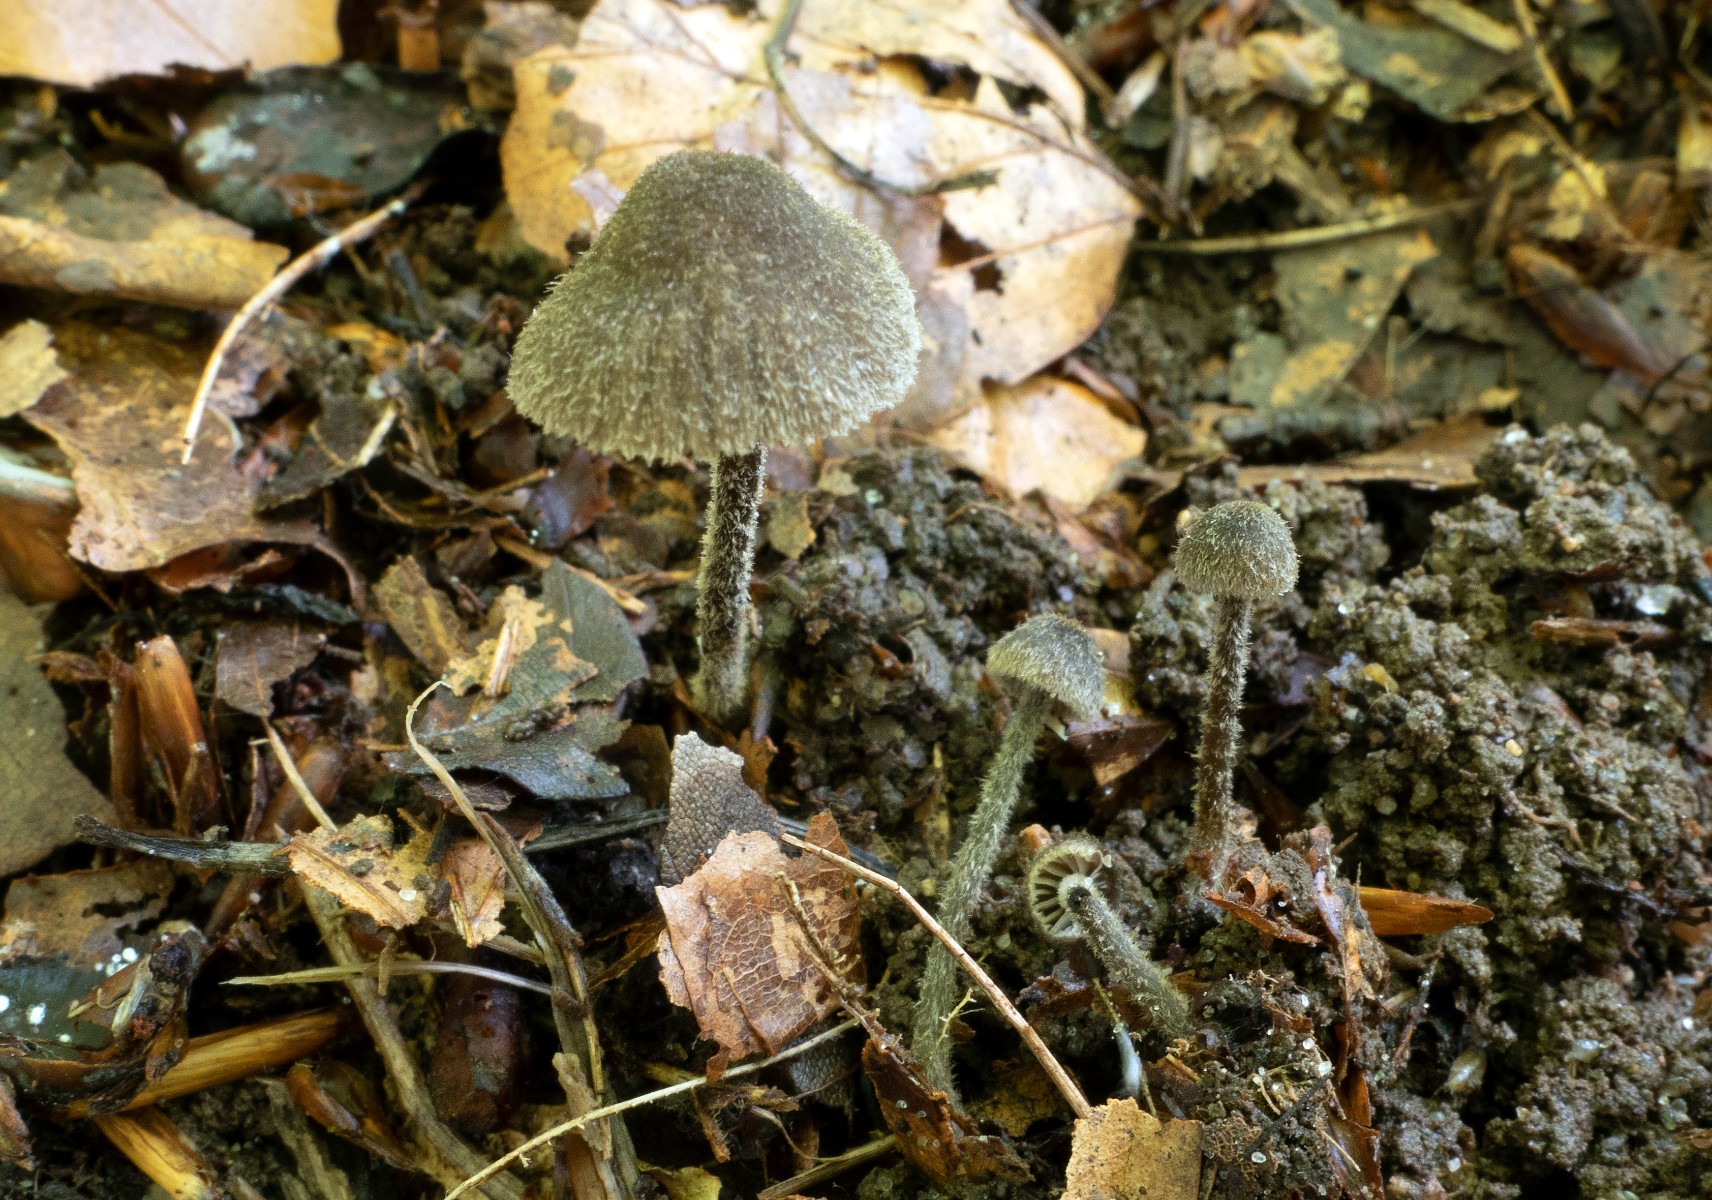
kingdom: Fungi
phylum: Basidiomycota
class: Agaricomycetes
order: Agaricales
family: Entolomataceae
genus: Entoloma
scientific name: Entoloma dysthales
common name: gråhåret rødblad
